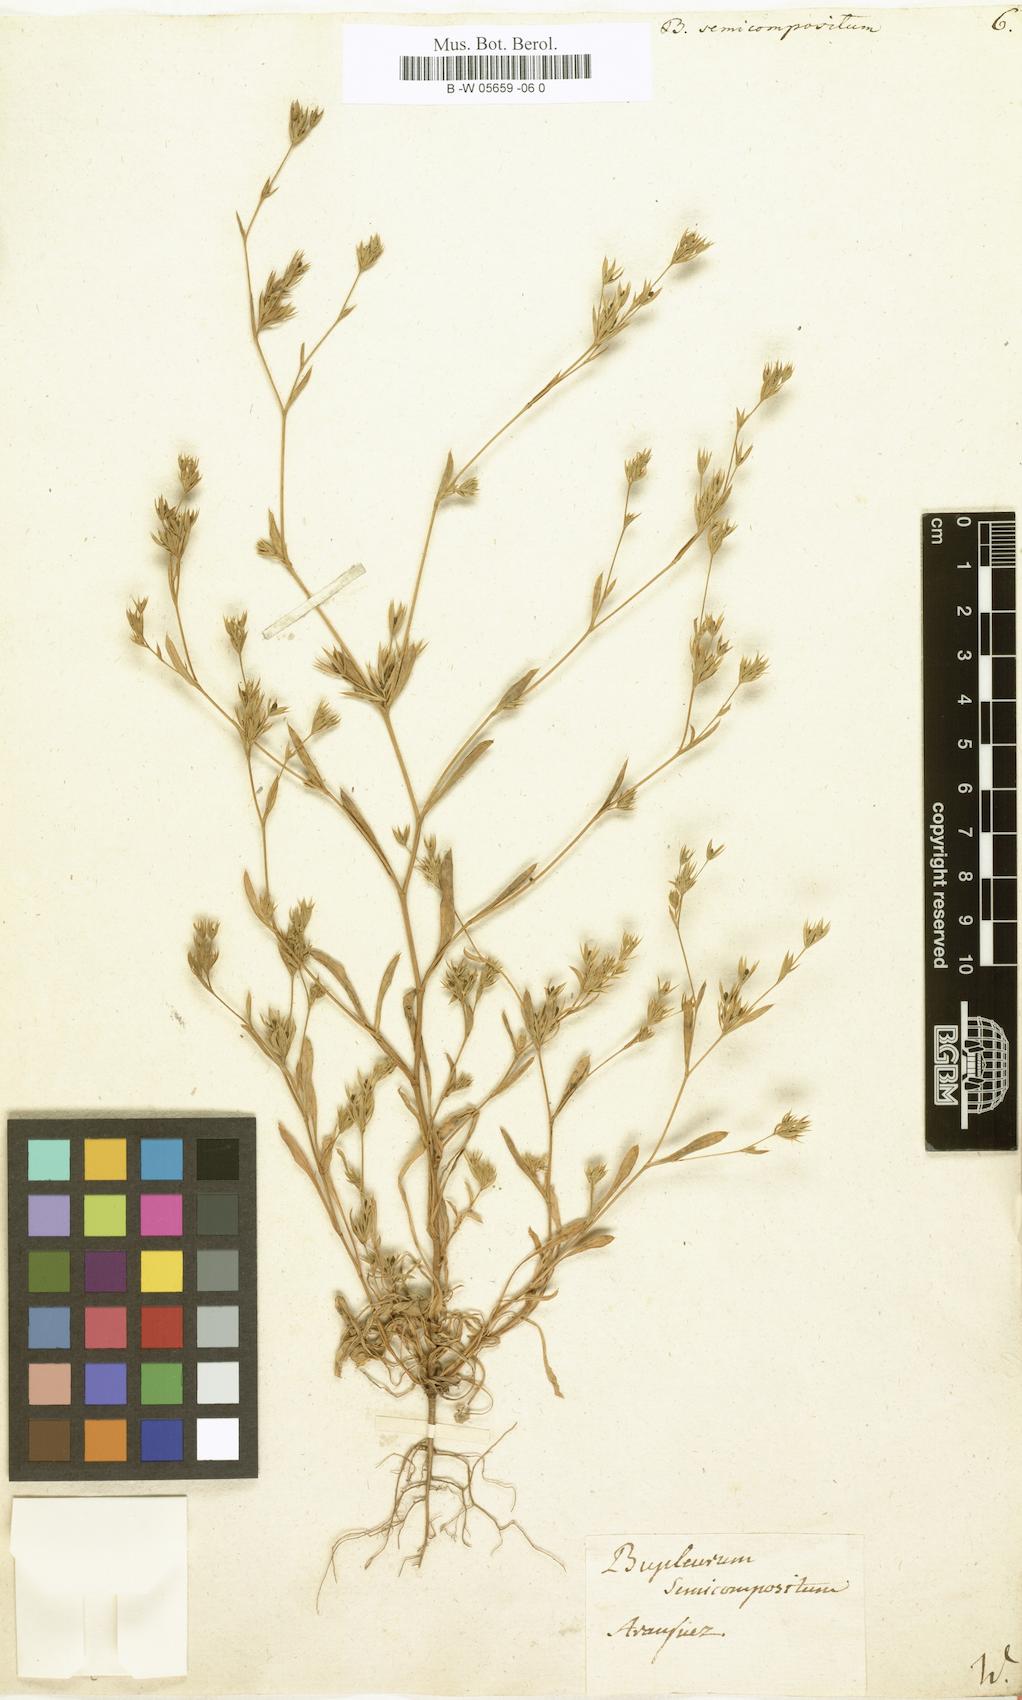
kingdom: Plantae
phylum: Tracheophyta
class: Magnoliopsida
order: Apiales
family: Apiaceae
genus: Bupleurum
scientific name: Bupleurum semicompositum
